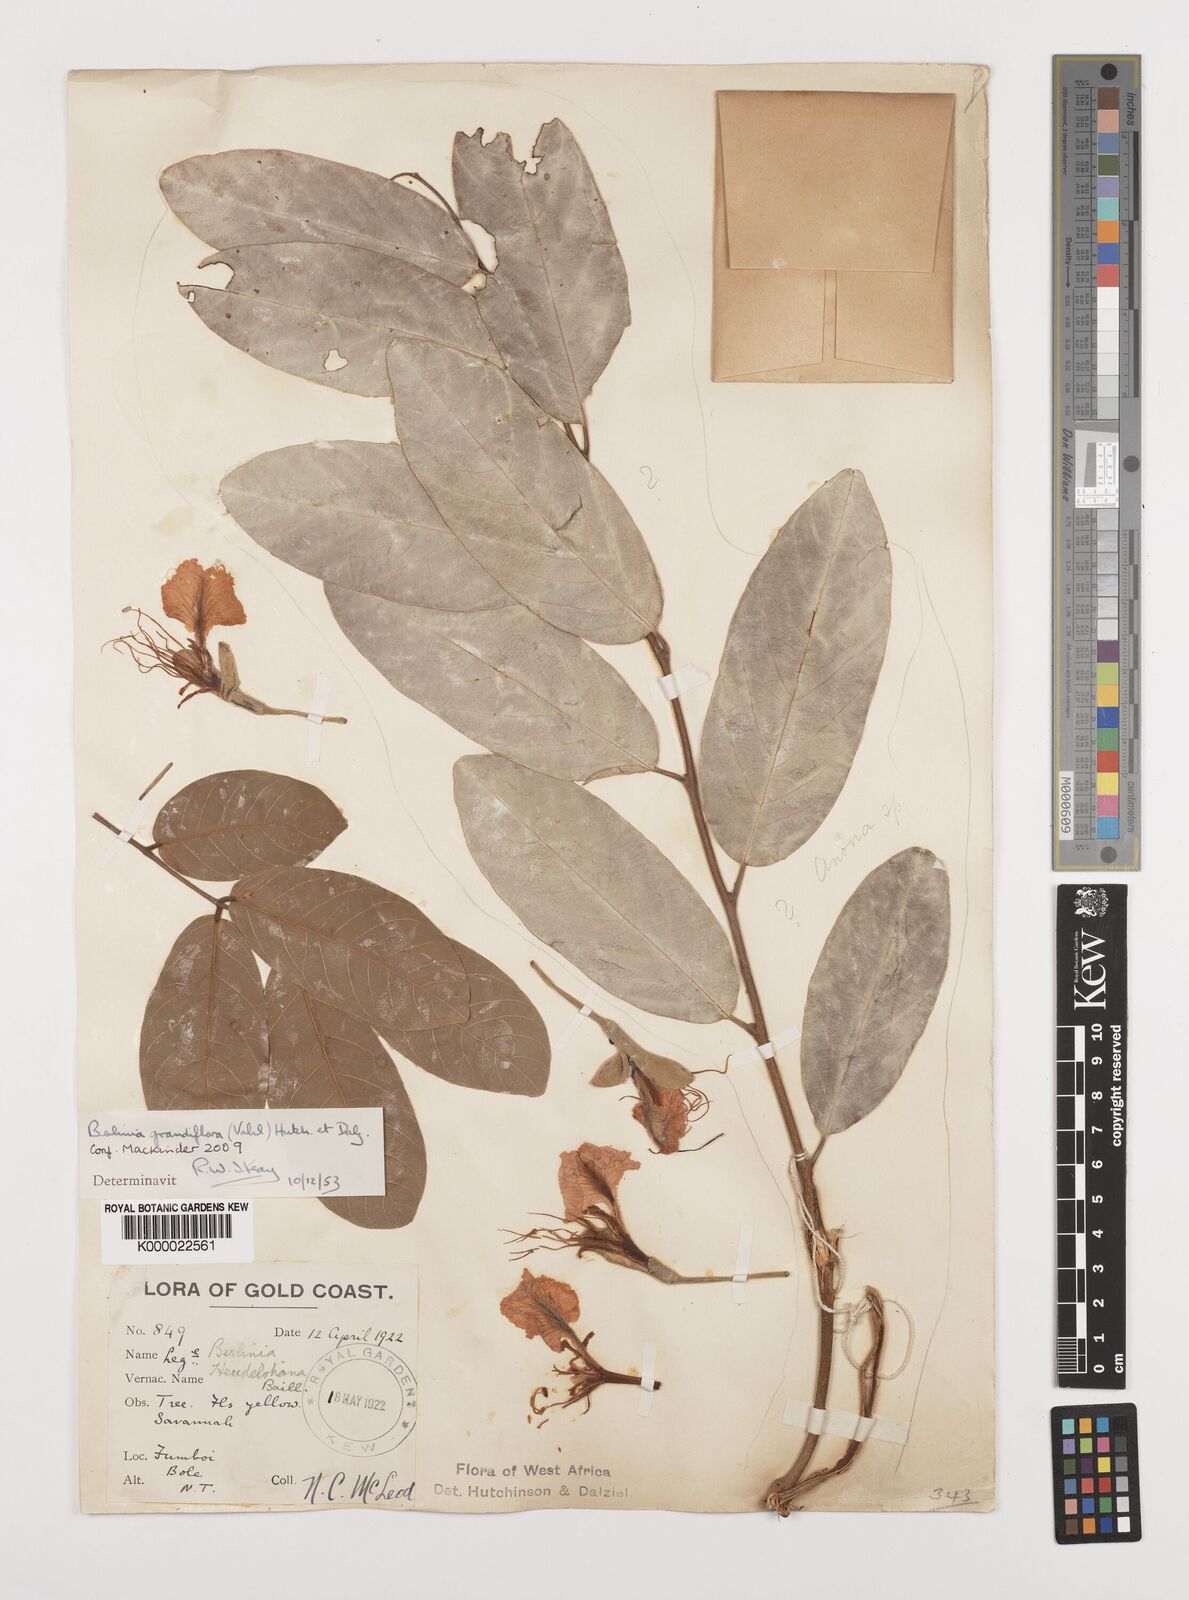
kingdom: Plantae
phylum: Tracheophyta
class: Magnoliopsida
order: Fabales
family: Fabaceae
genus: Berlinia
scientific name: Berlinia grandiflora
